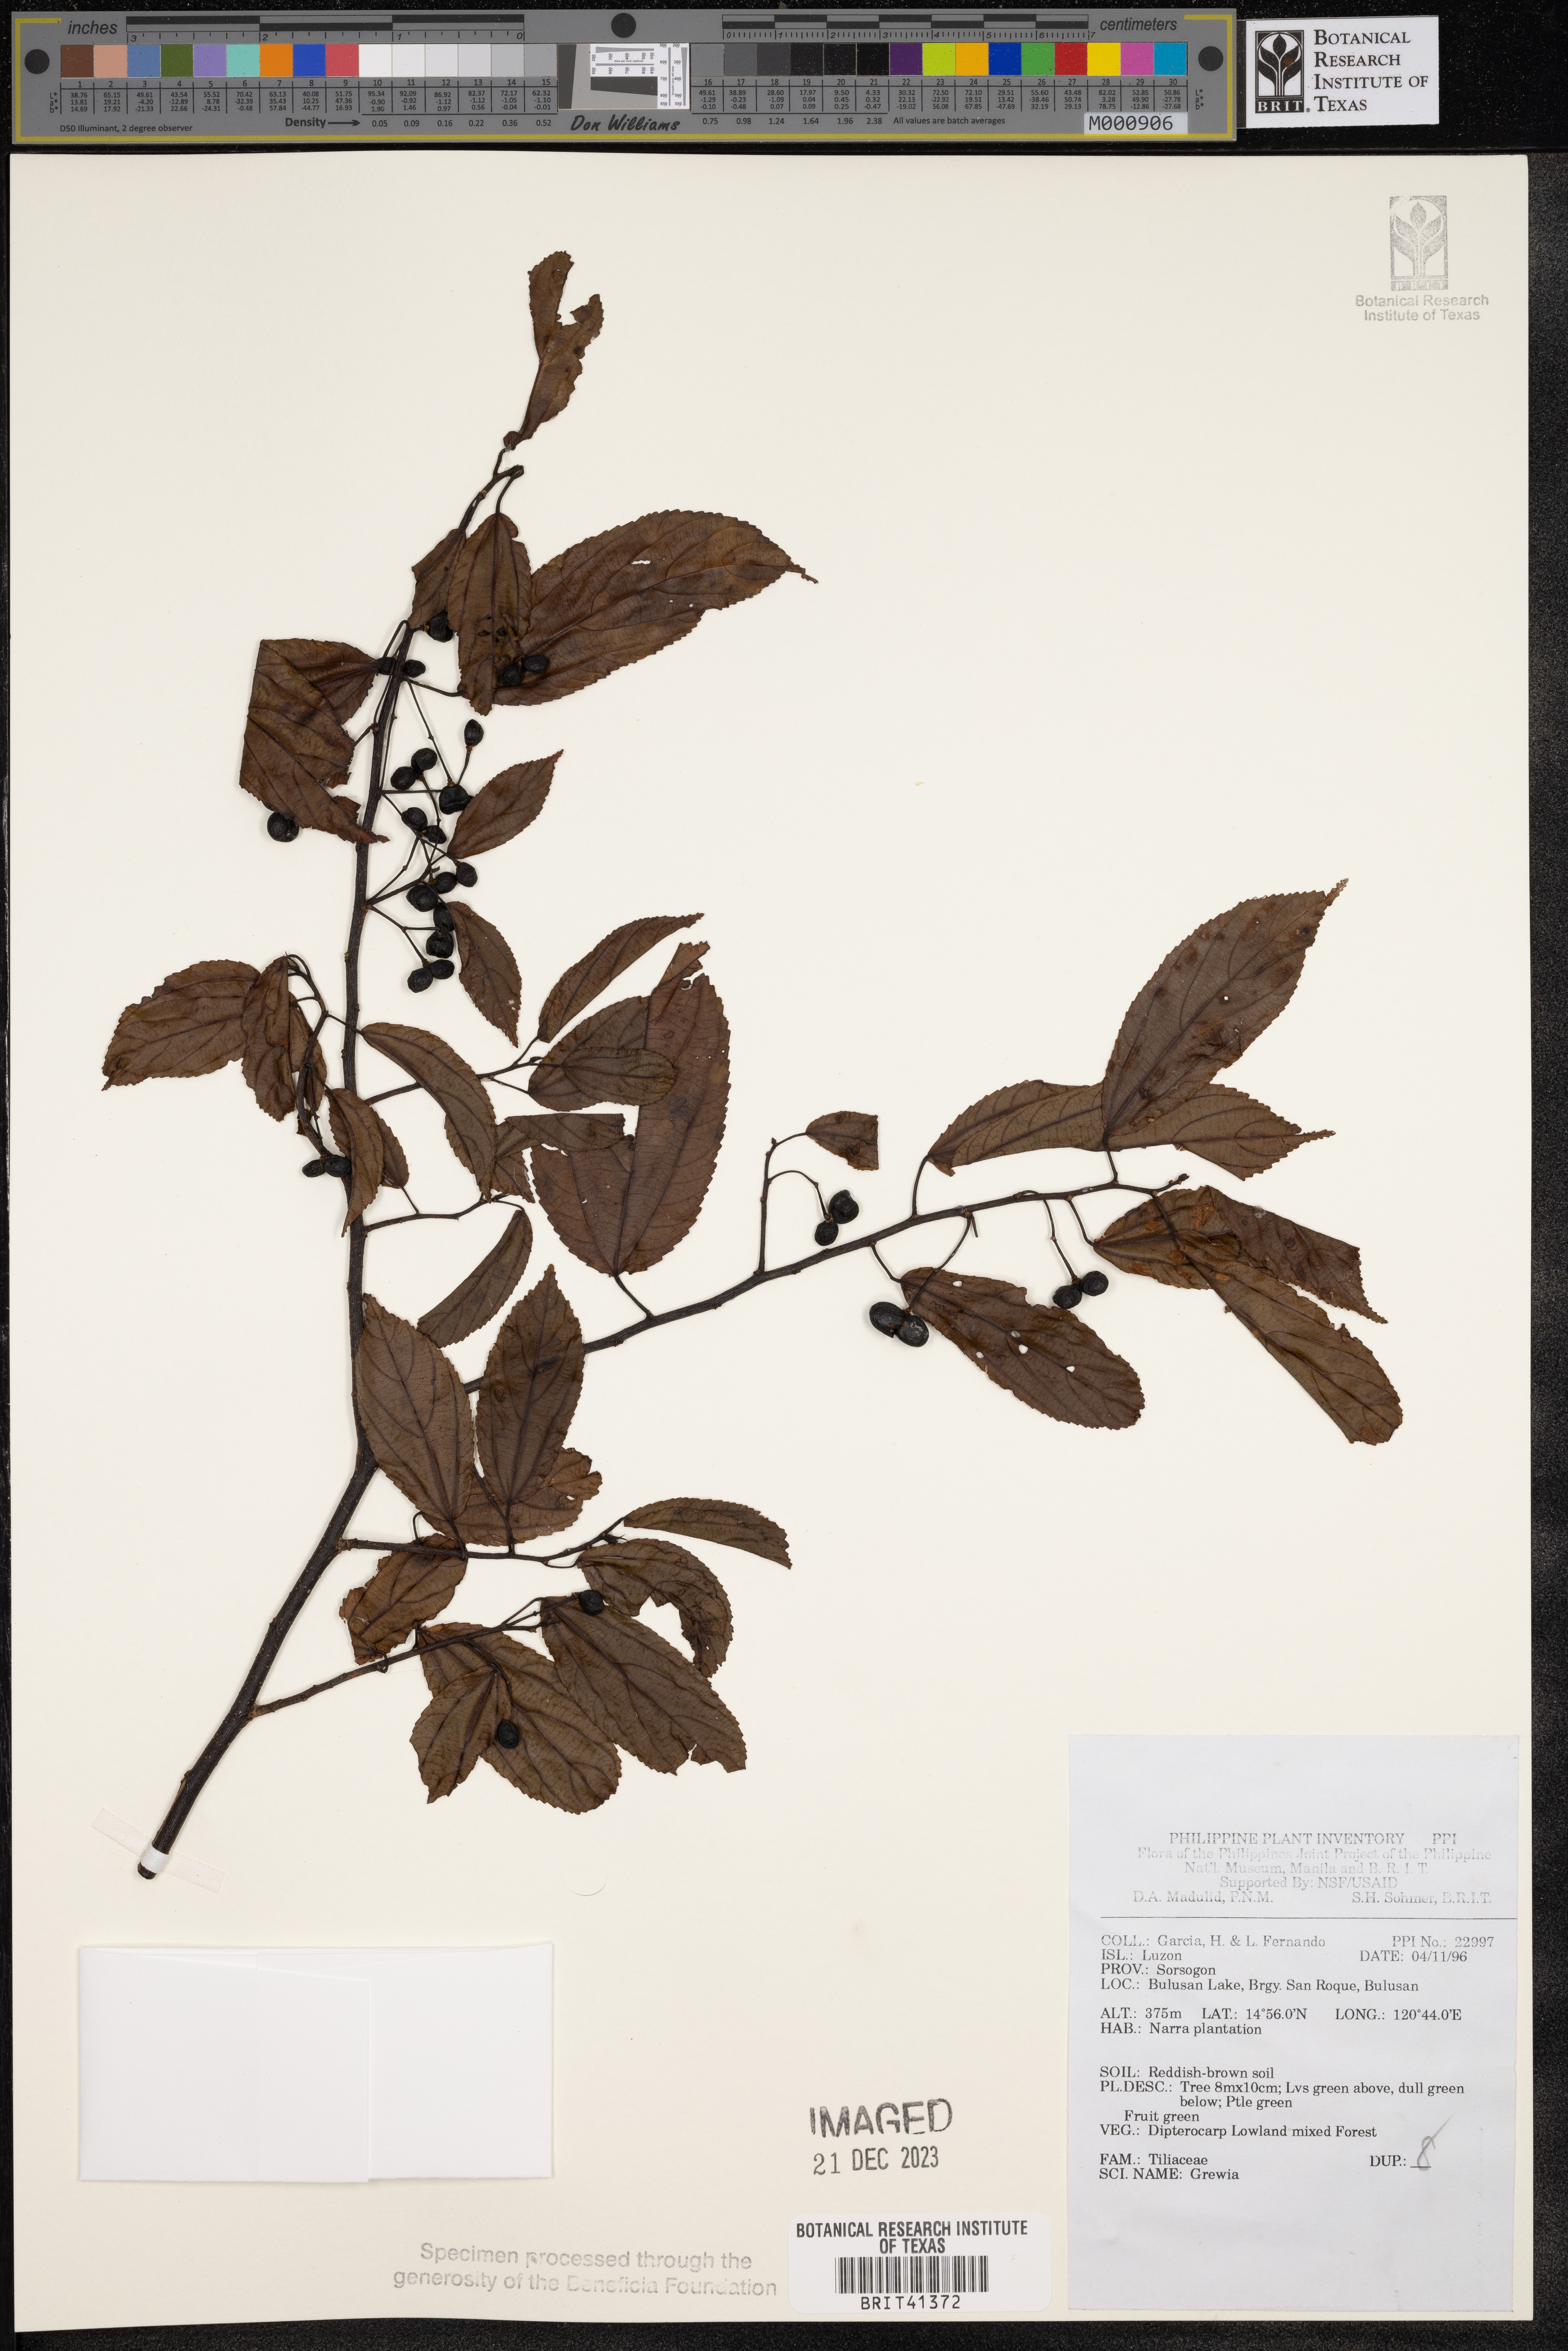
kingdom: Plantae
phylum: Tracheophyta
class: Magnoliopsida
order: Malvales
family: Malvaceae
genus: Grewia
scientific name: Grewia
